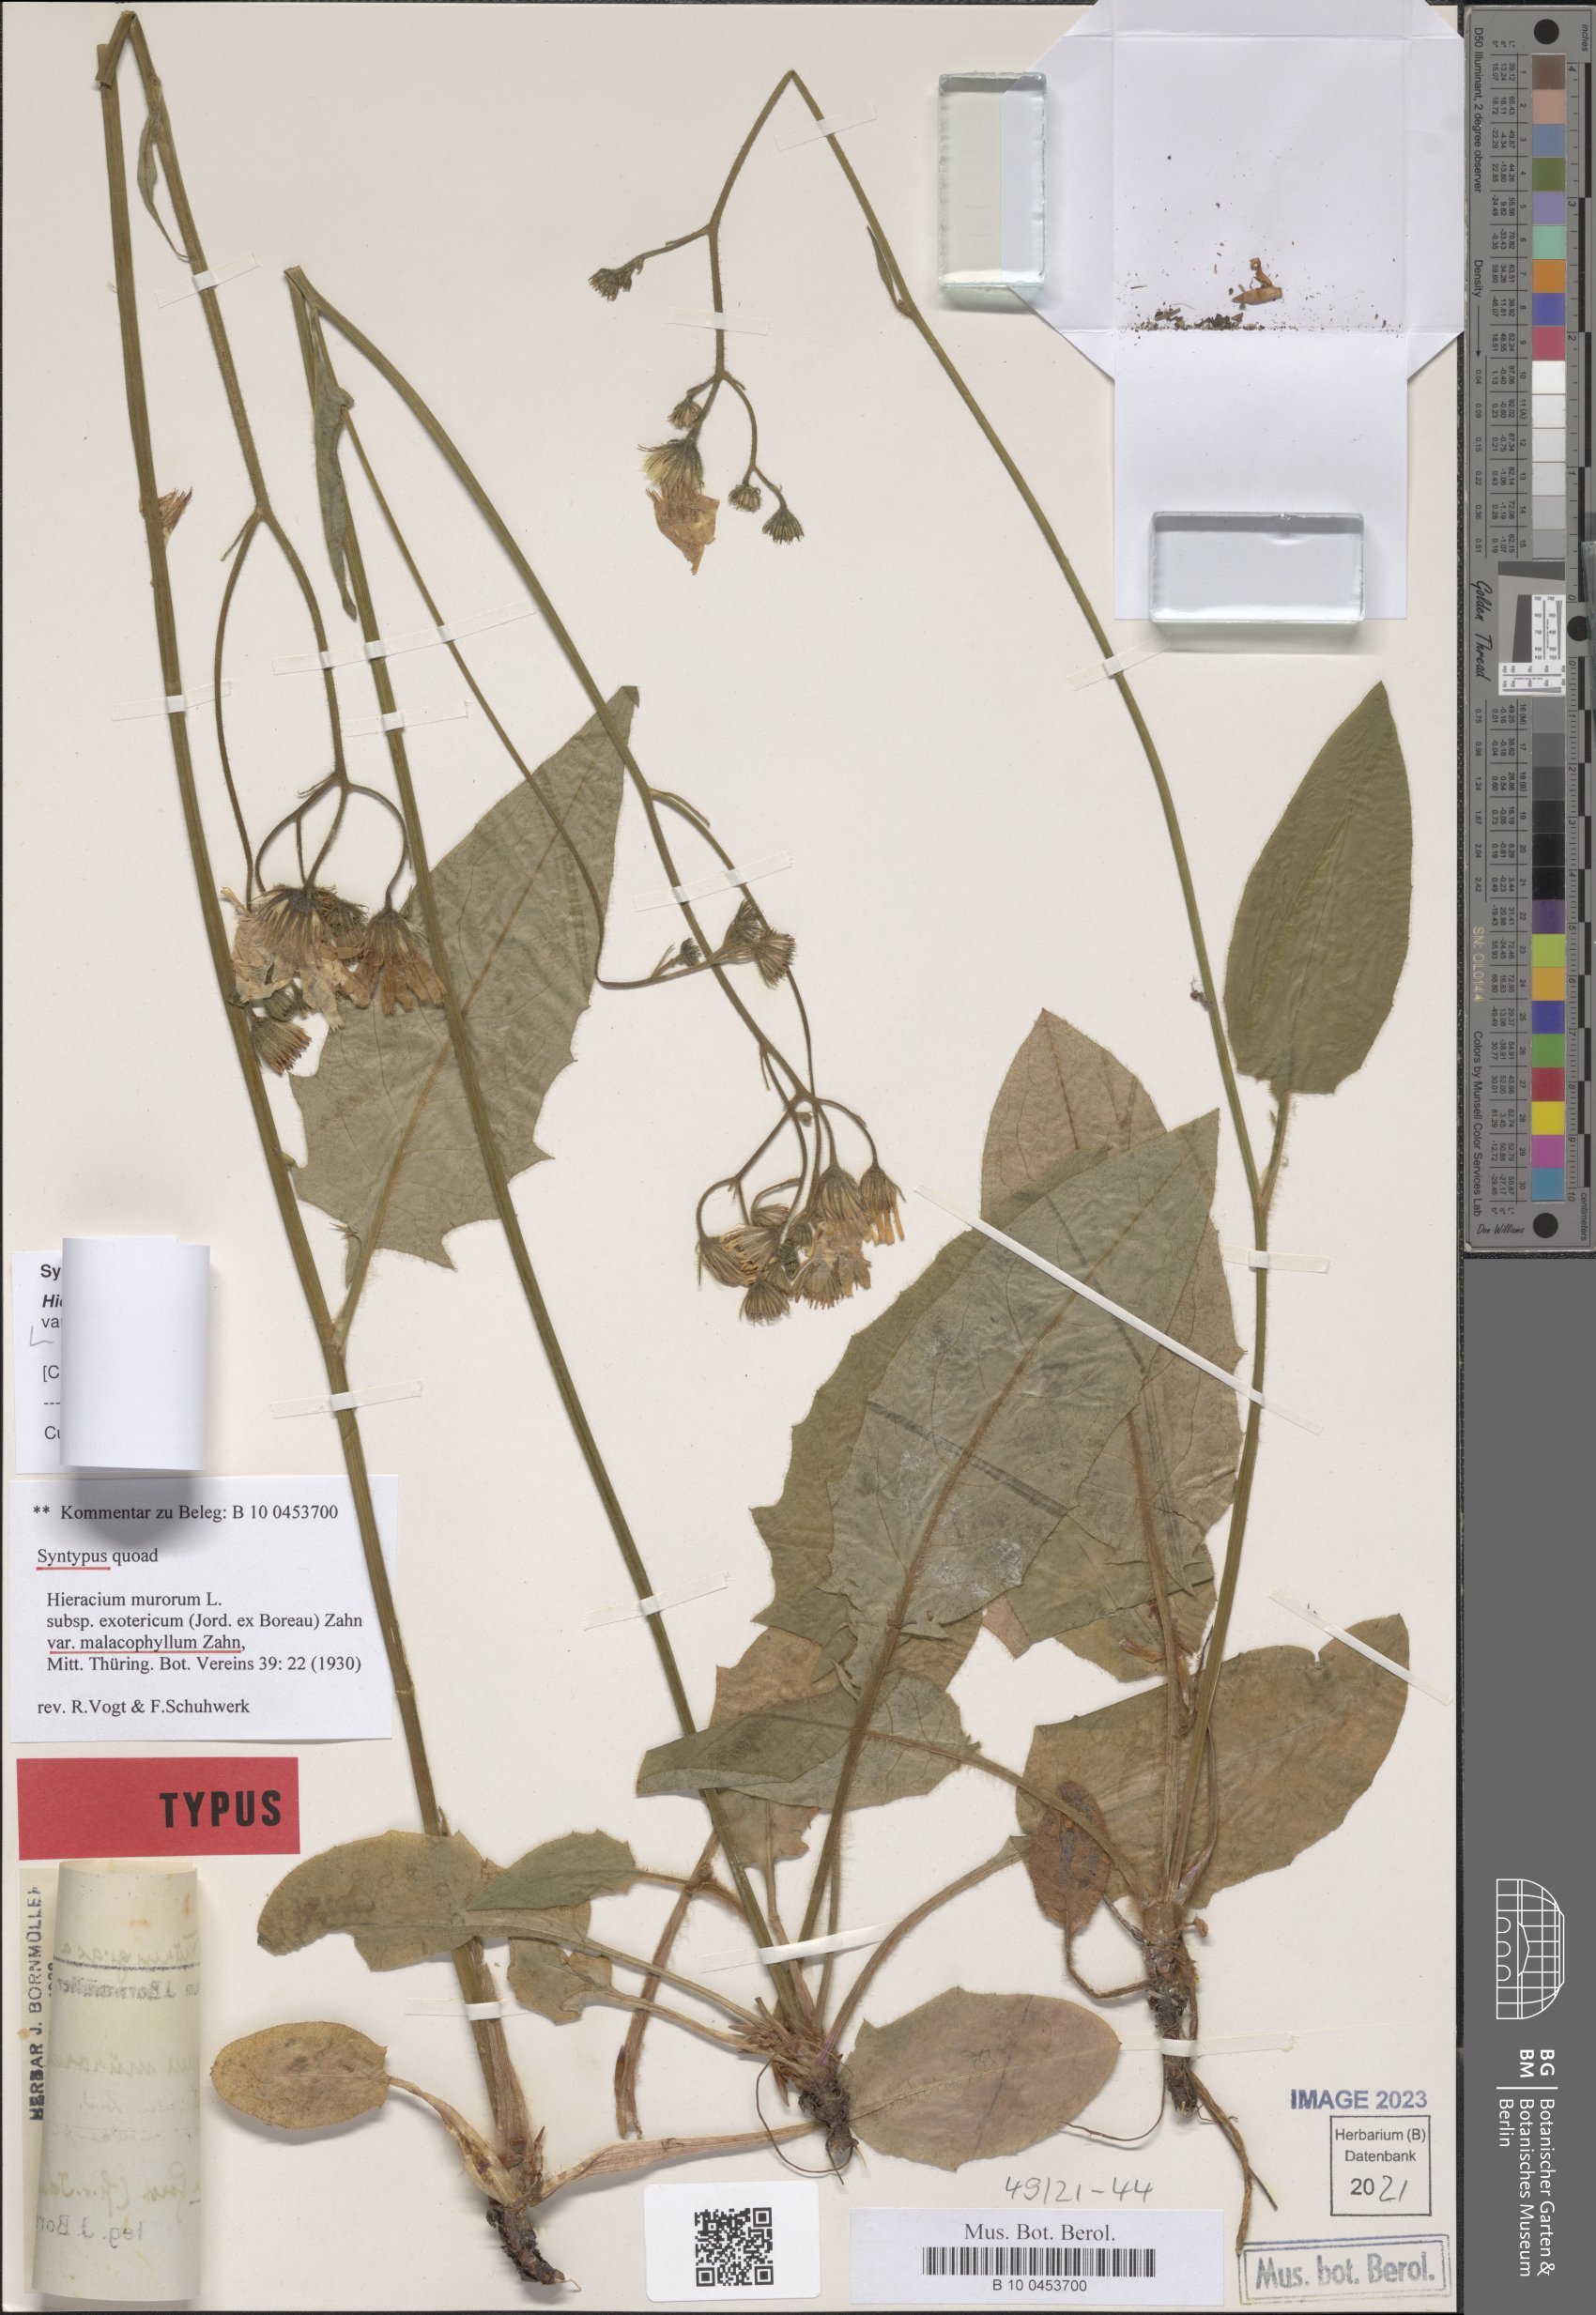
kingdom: Plantae
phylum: Tracheophyta
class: Magnoliopsida
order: Asterales
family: Asteraceae
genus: Hieracium
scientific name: Hieracium murorum
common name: Wall hawkweed
